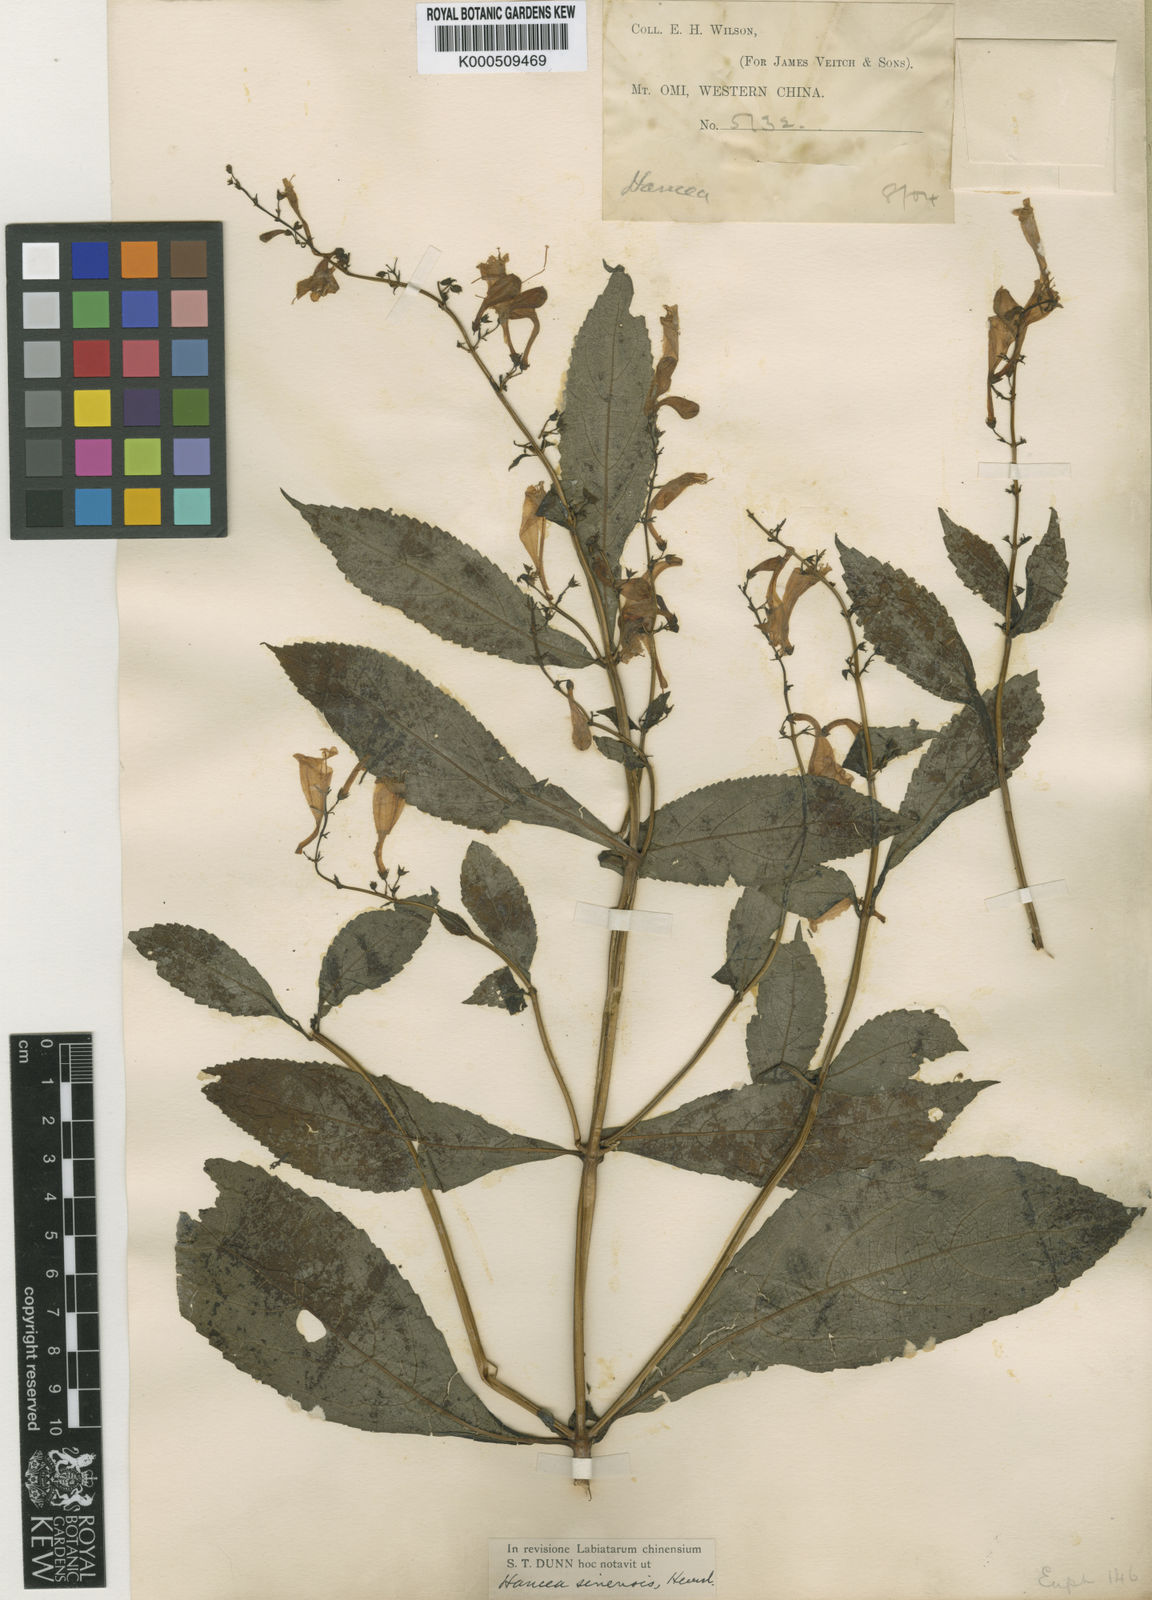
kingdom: Plantae
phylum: Tracheophyta
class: Magnoliopsida
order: Lamiales
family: Lamiaceae
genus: Hanceola
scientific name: Hanceola
